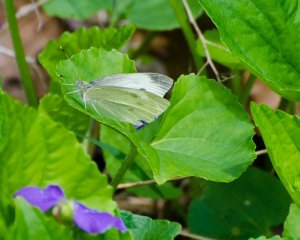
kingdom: Animalia
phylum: Arthropoda
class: Insecta
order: Lepidoptera
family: Pieridae
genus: Pieris
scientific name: Pieris rapae
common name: Cabbage White
